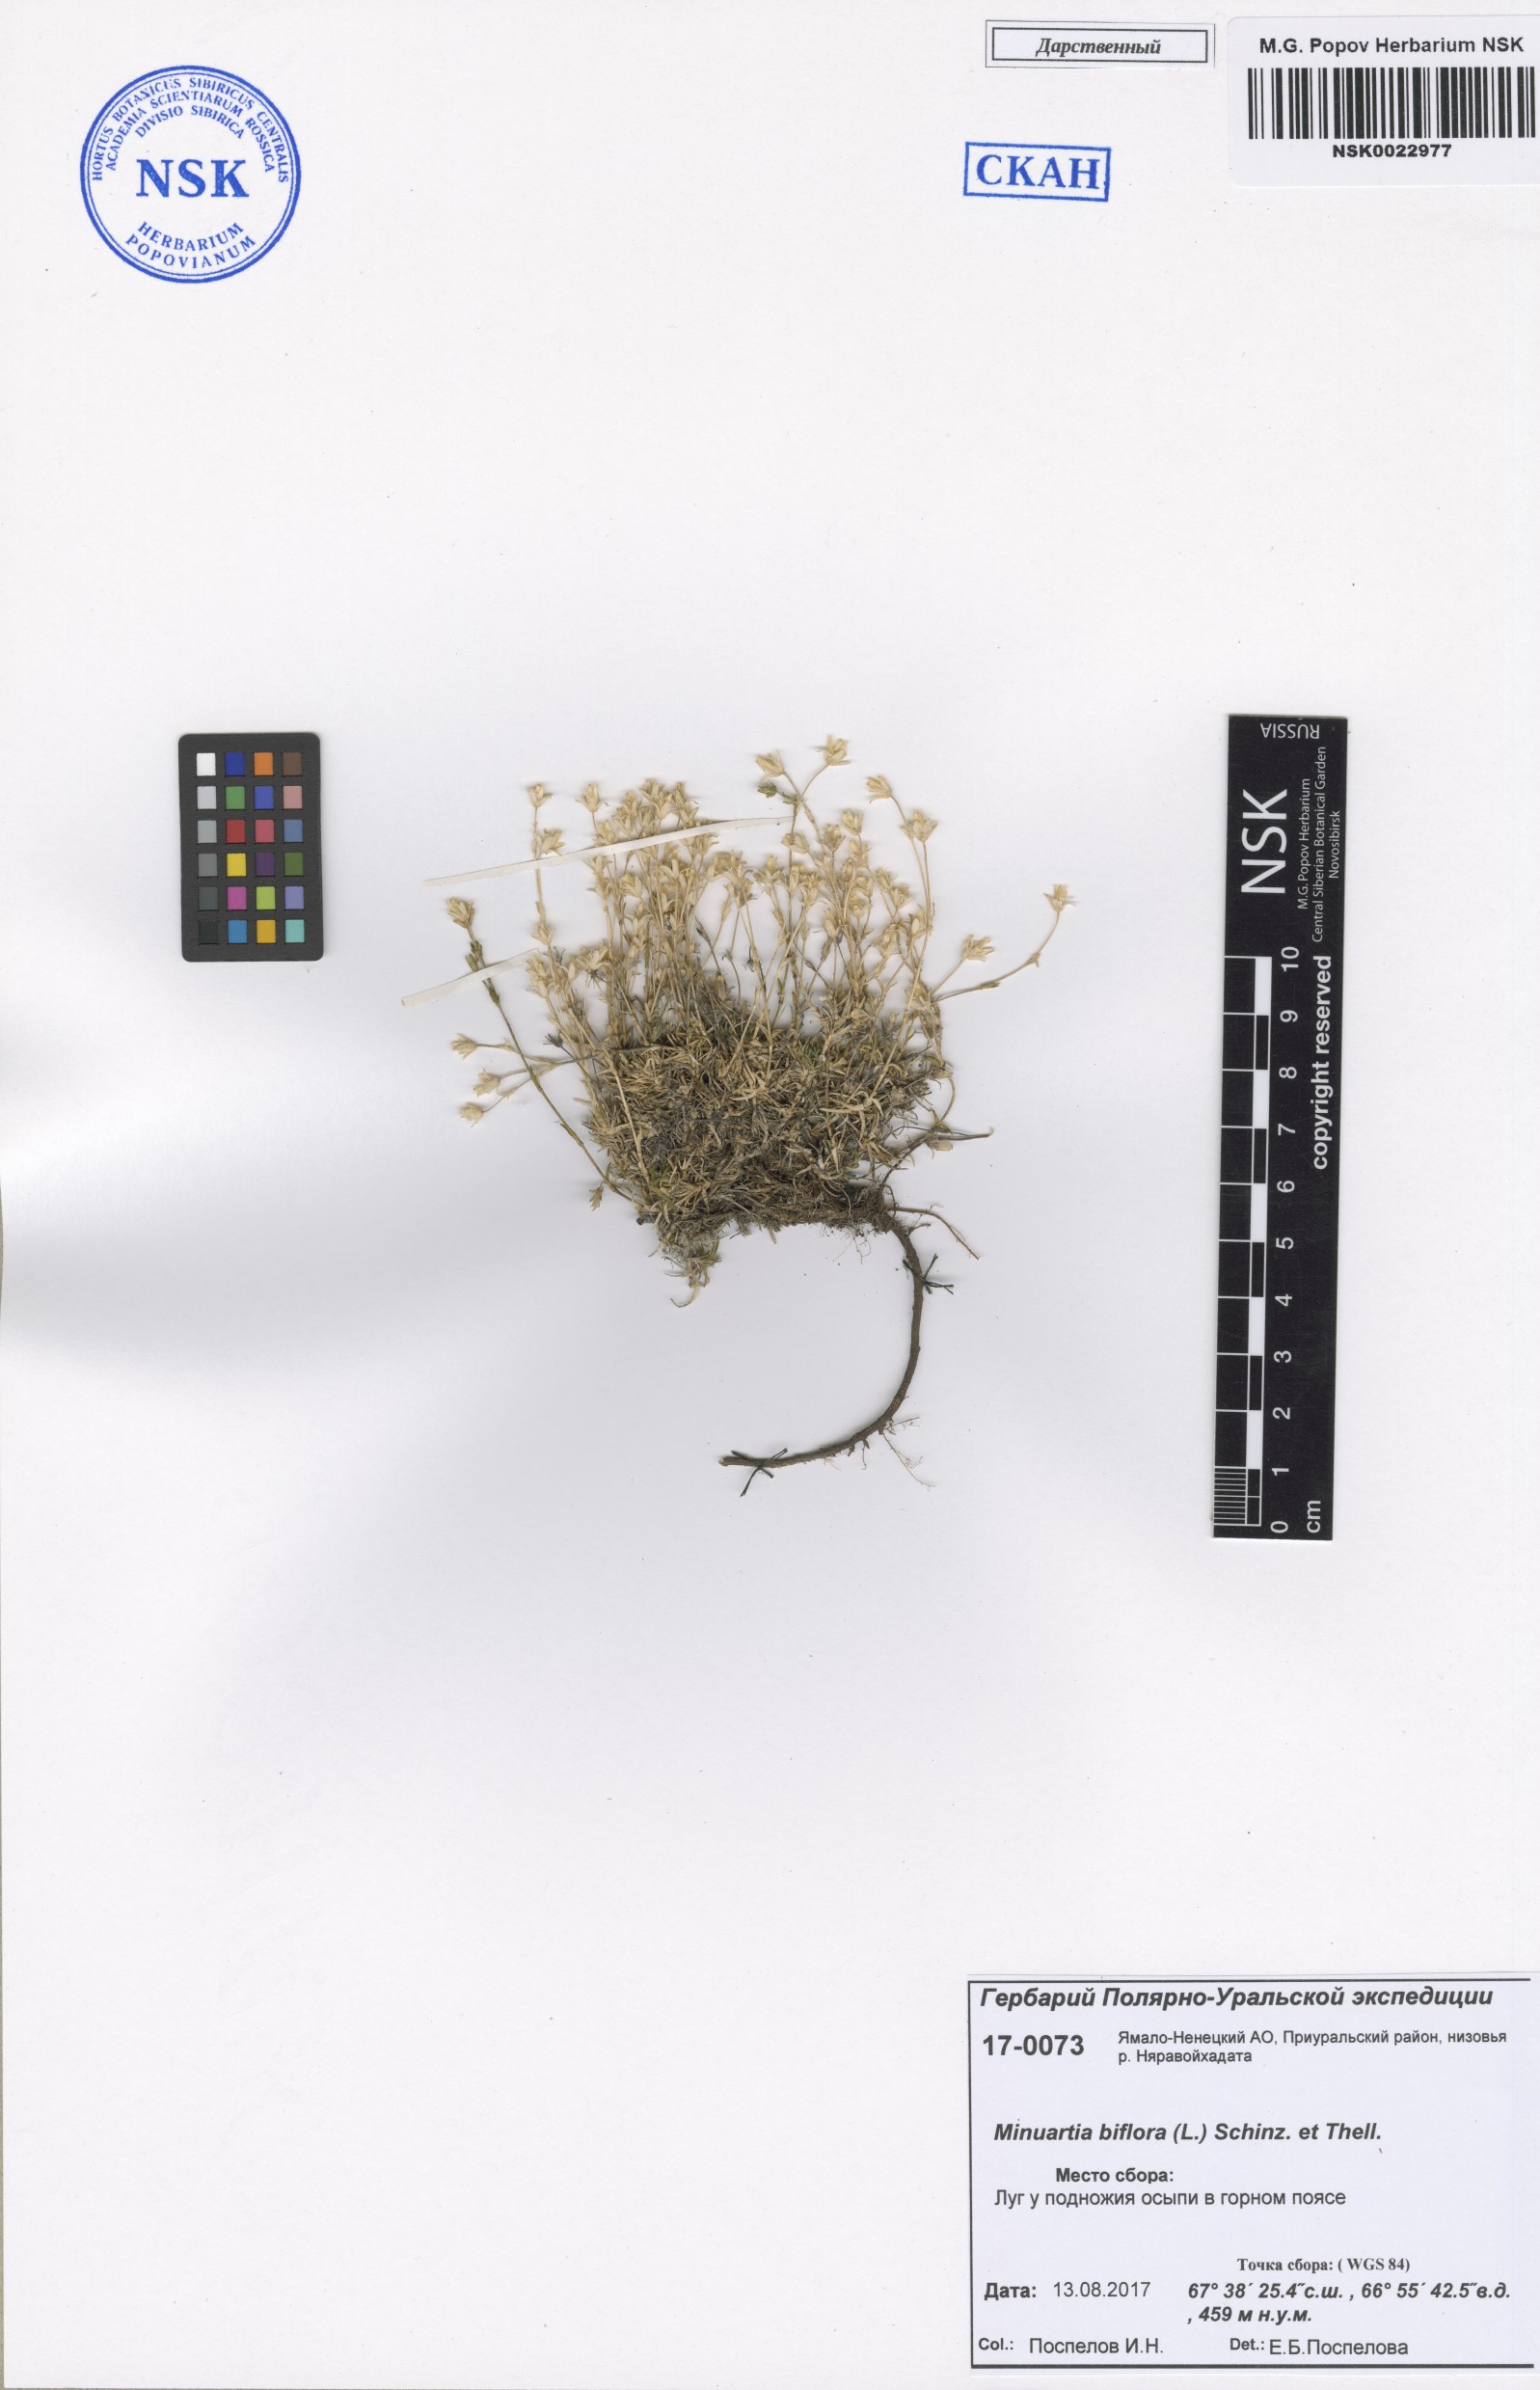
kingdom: Plantae
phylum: Tracheophyta
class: Magnoliopsida
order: Caryophyllales
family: Caryophyllaceae
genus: Cherleria
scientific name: Cherleria biflora
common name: Mountain sandwort
